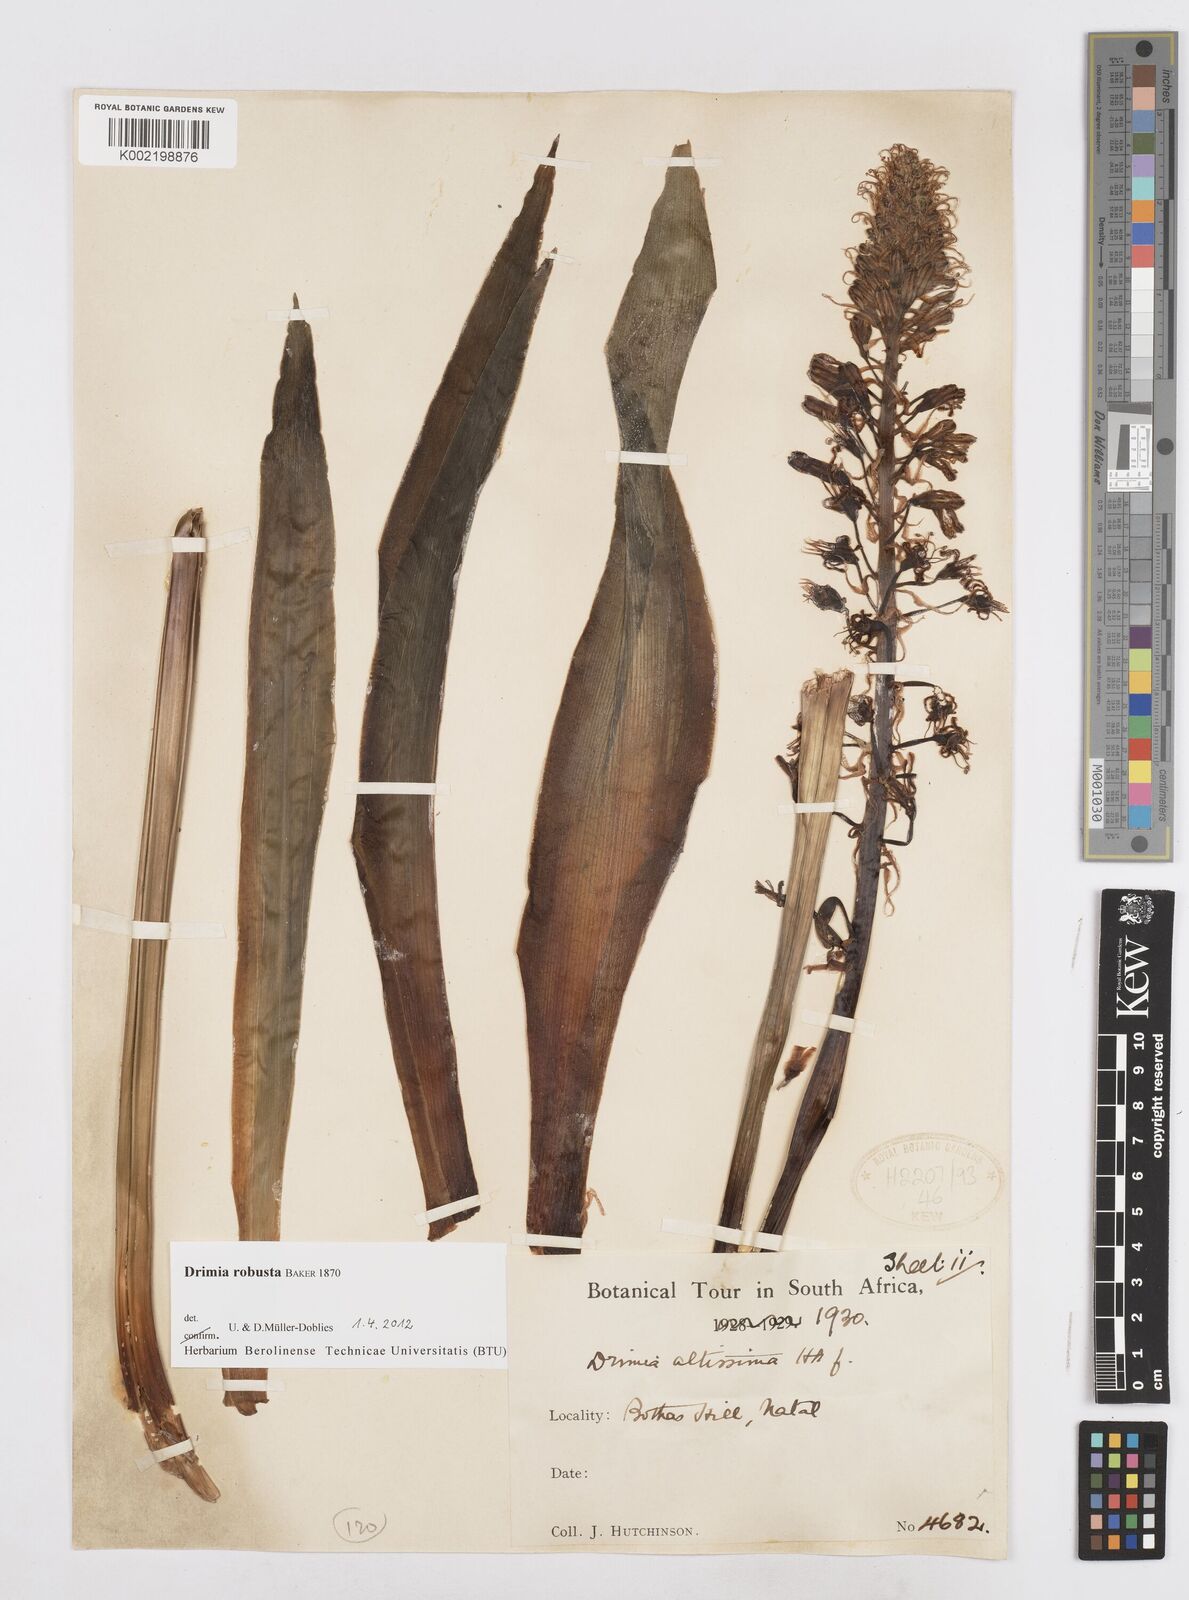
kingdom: Plantae
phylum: Tracheophyta
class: Liliopsida
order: Asparagales
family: Asparagaceae
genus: Drimia
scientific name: Drimia elata
